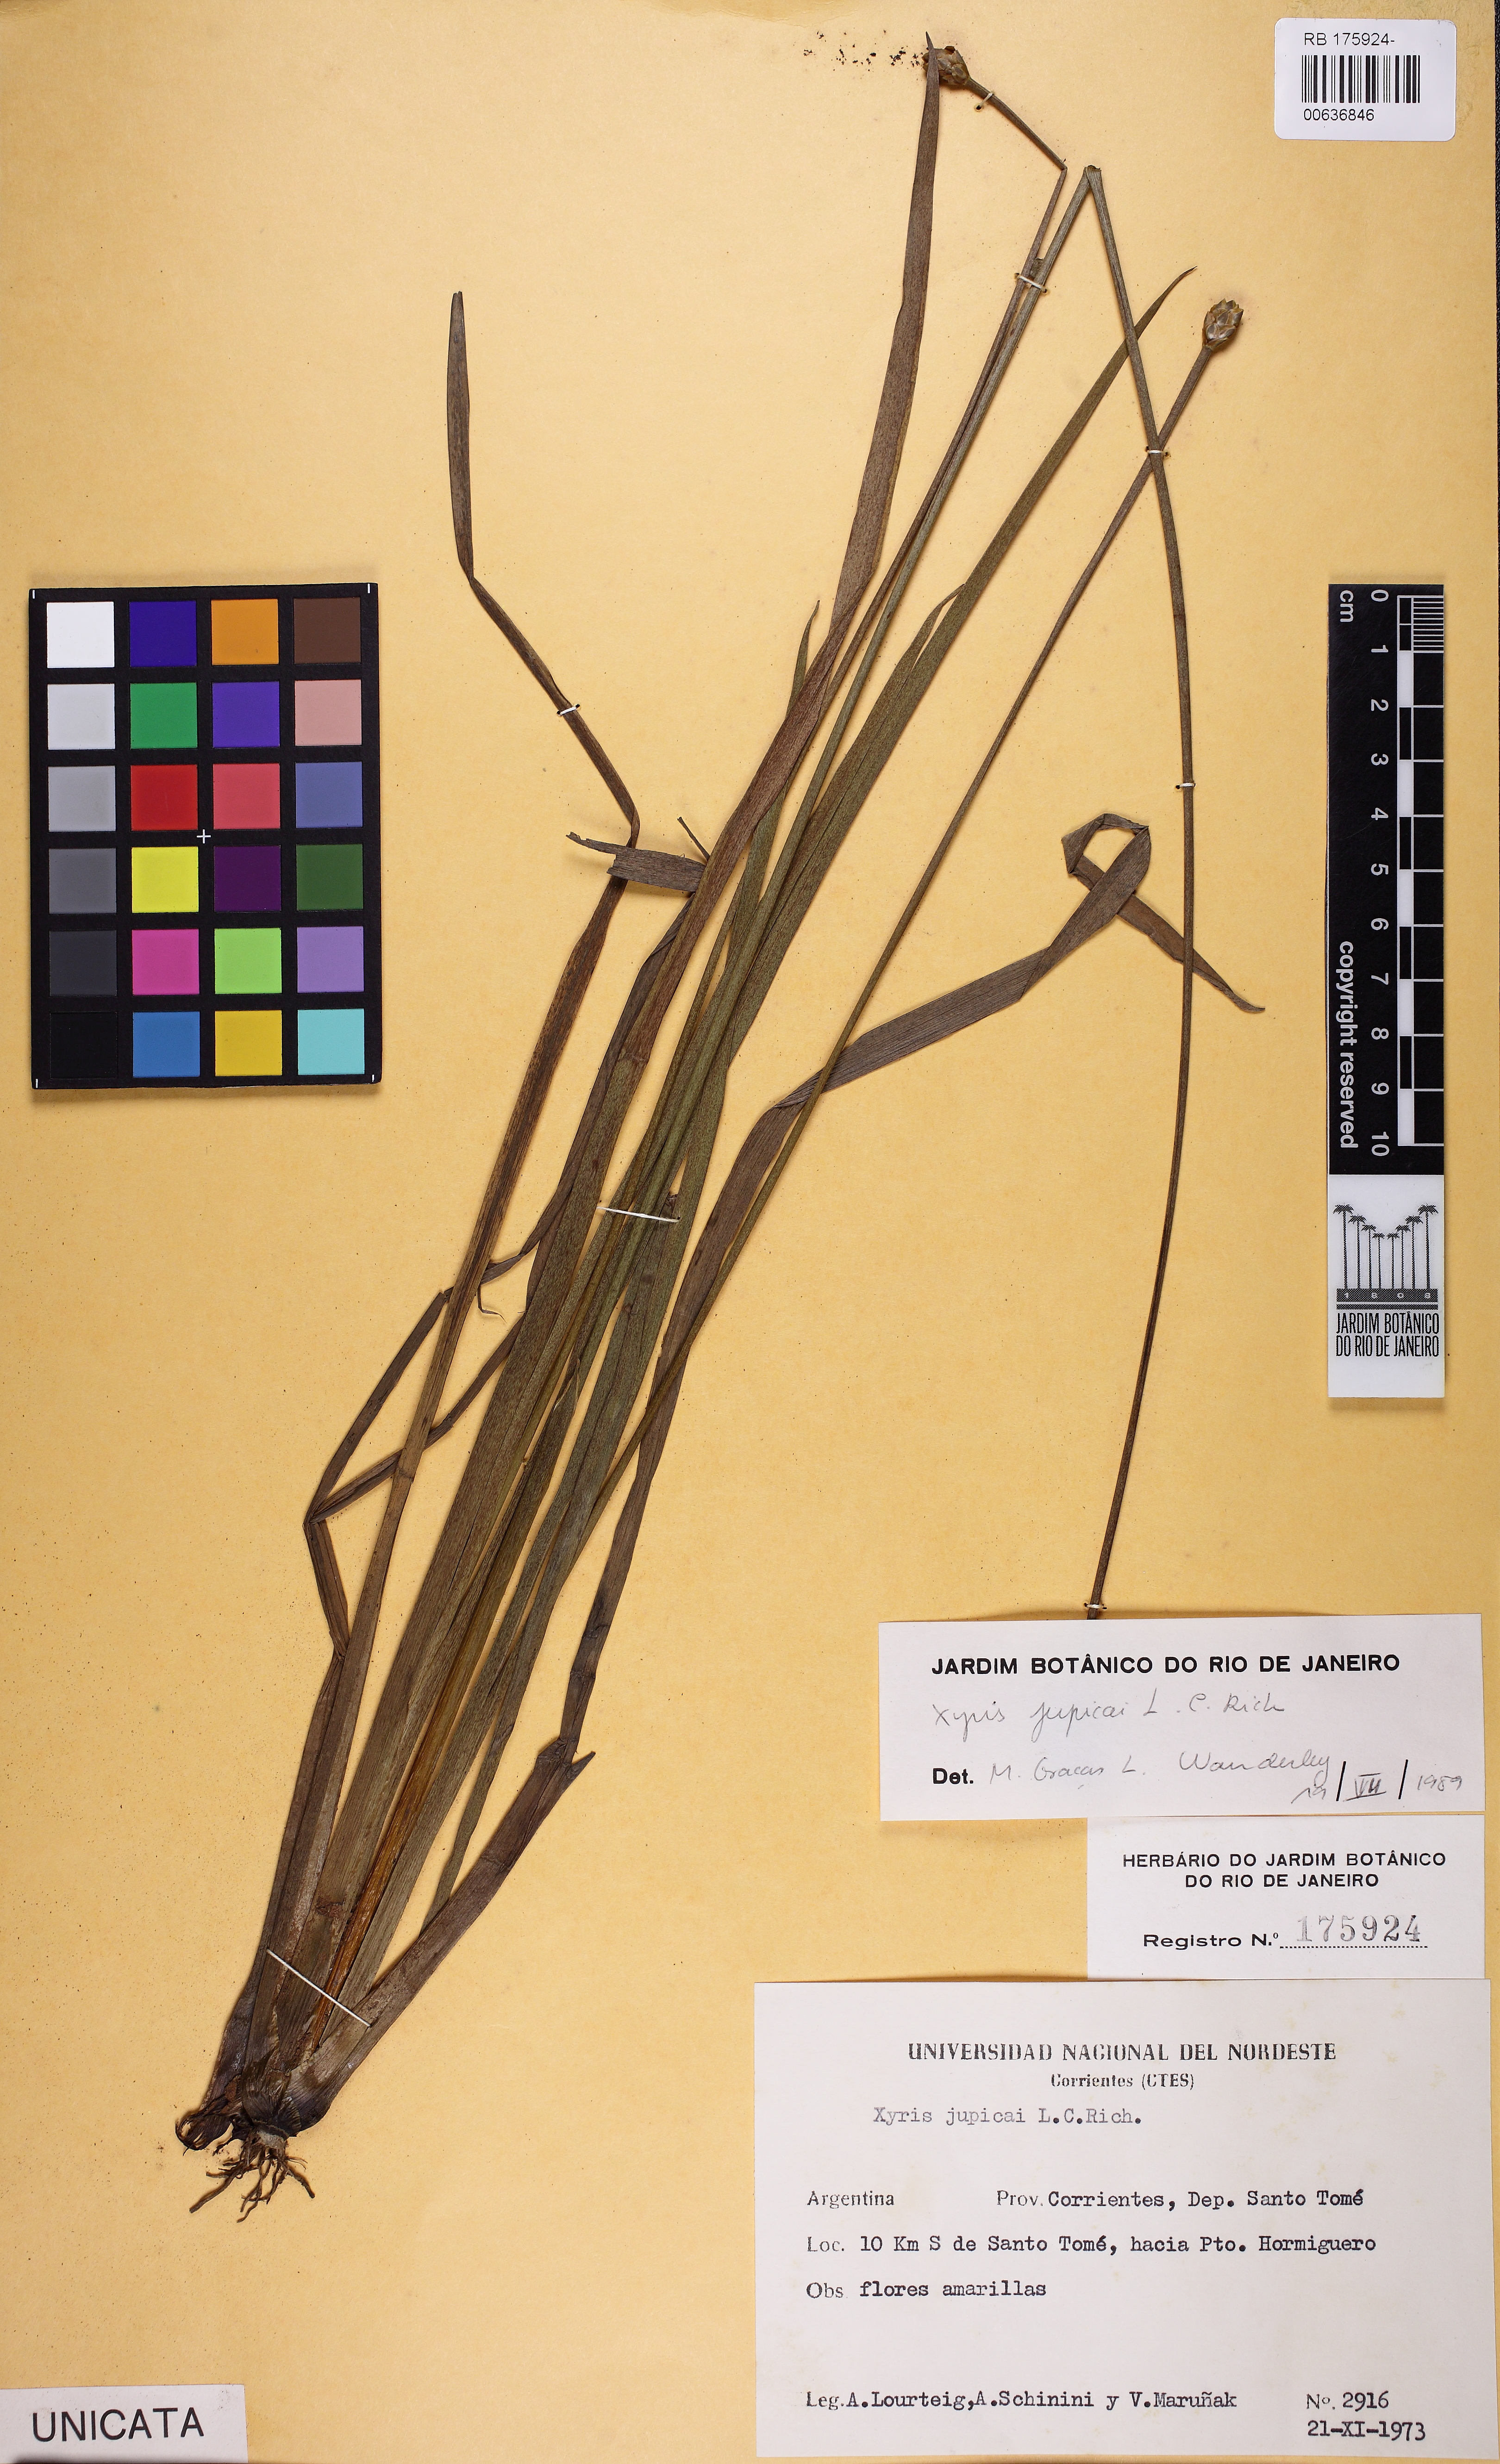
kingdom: Plantae
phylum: Tracheophyta
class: Liliopsida
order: Poales
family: Xyridaceae
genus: Xyris
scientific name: Xyris jupicai
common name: Richard's yelloweyed grass
